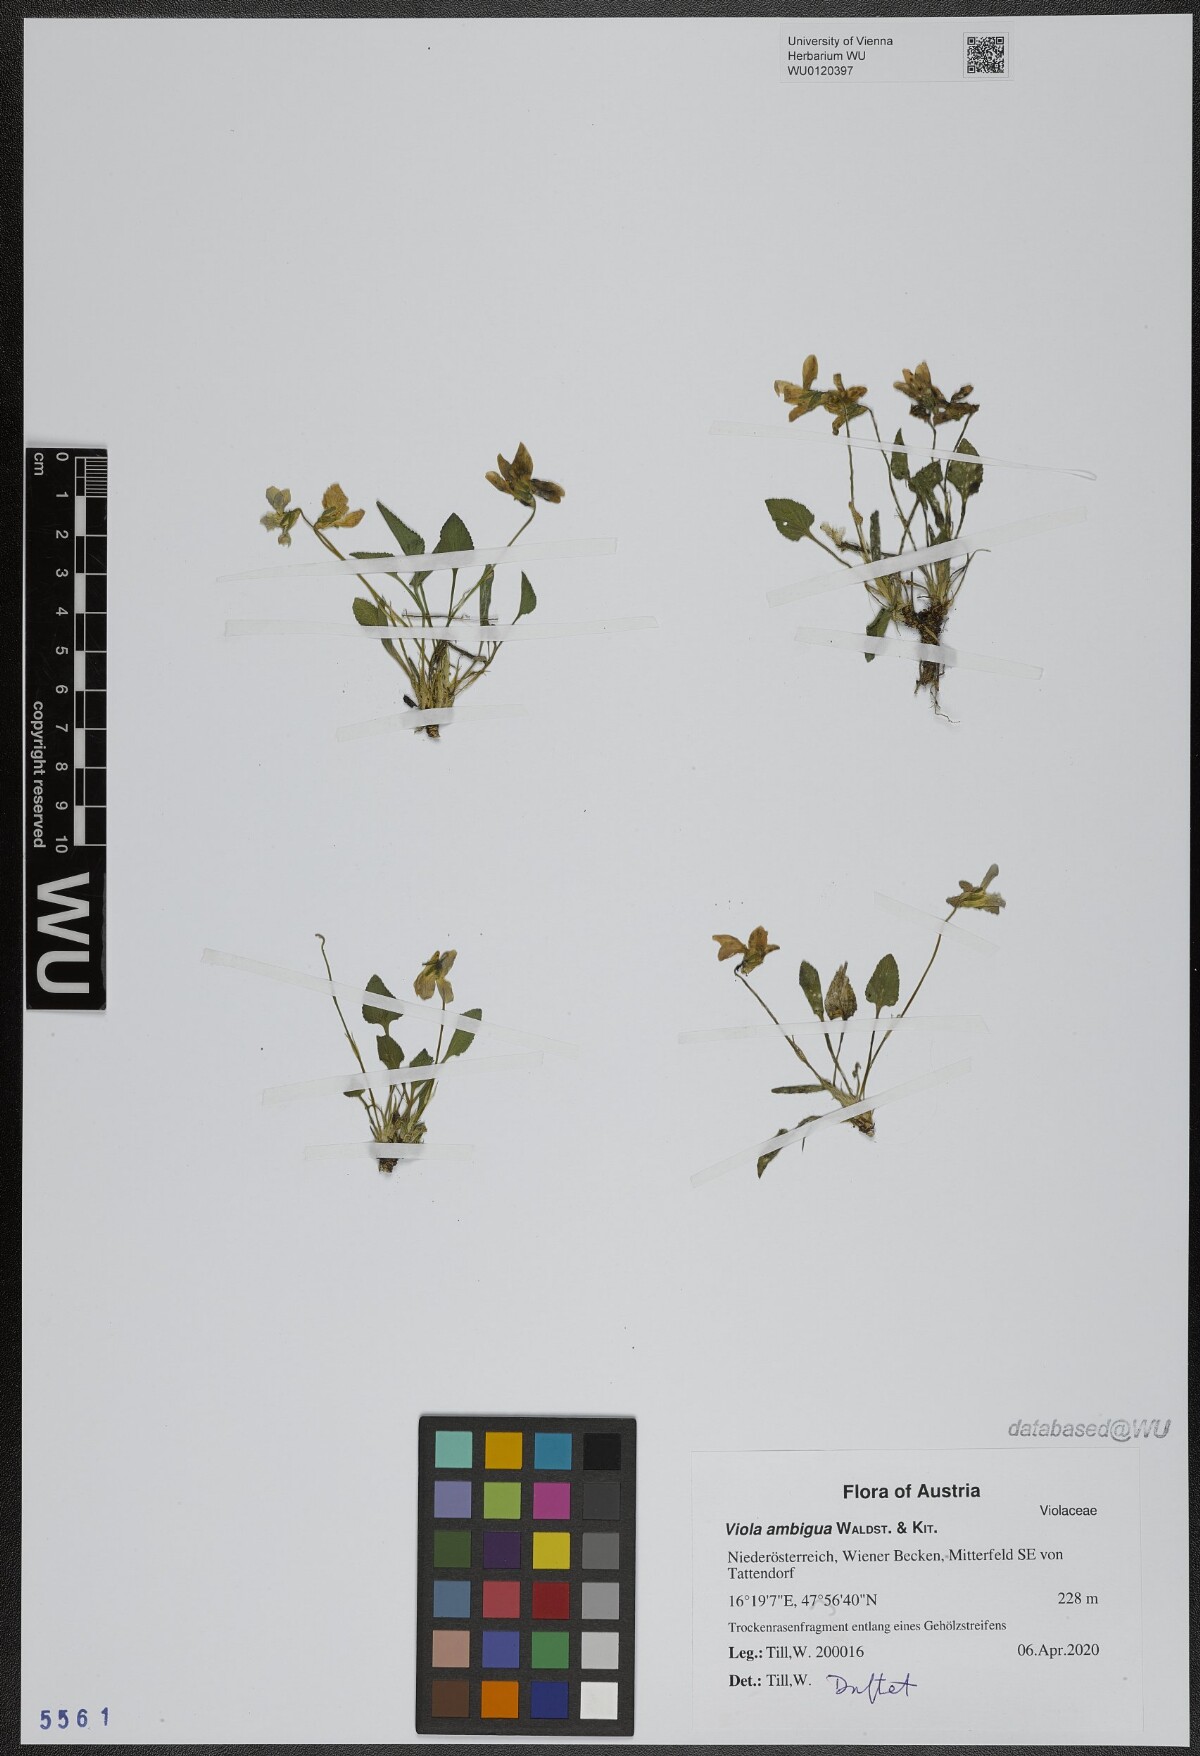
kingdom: Plantae
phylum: Tracheophyta
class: Magnoliopsida
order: Malpighiales
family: Violaceae
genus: Viola
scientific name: Viola ambigua
